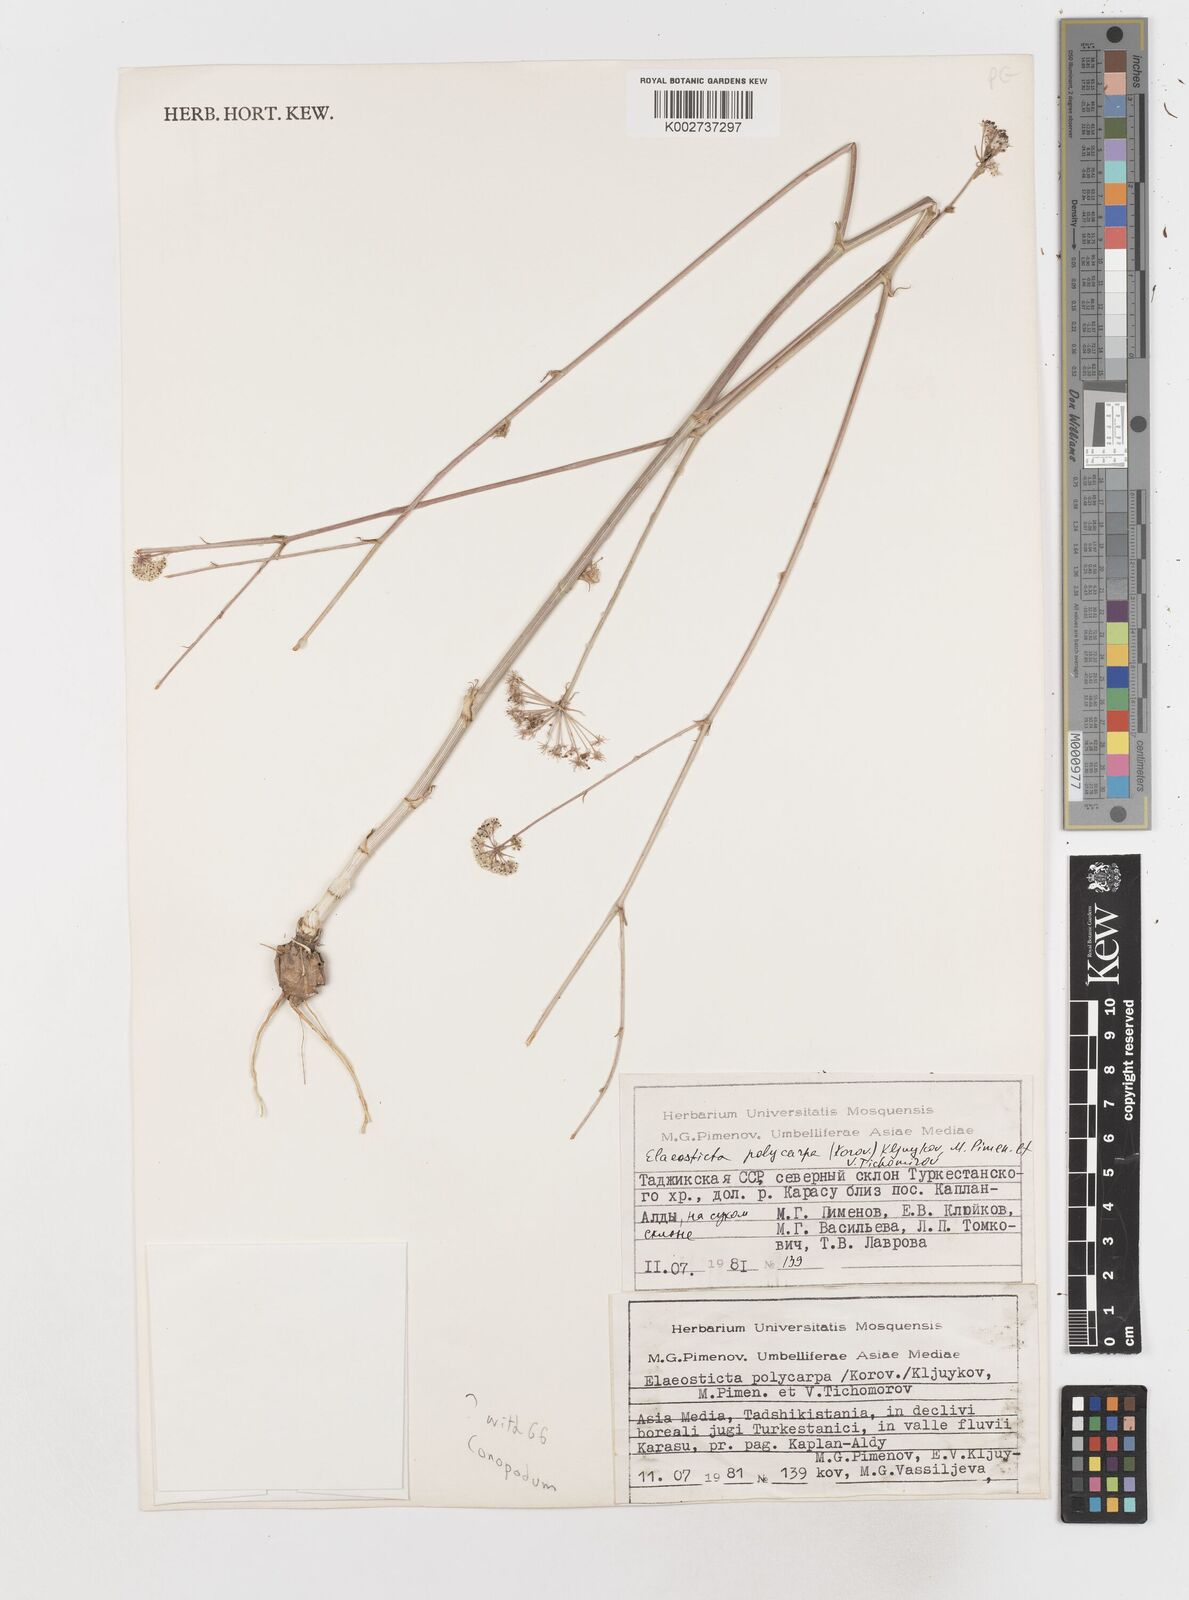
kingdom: Plantae
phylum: Tracheophyta
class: Magnoliopsida
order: Apiales
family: Apiaceae
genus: Conopodium
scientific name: Conopodium
